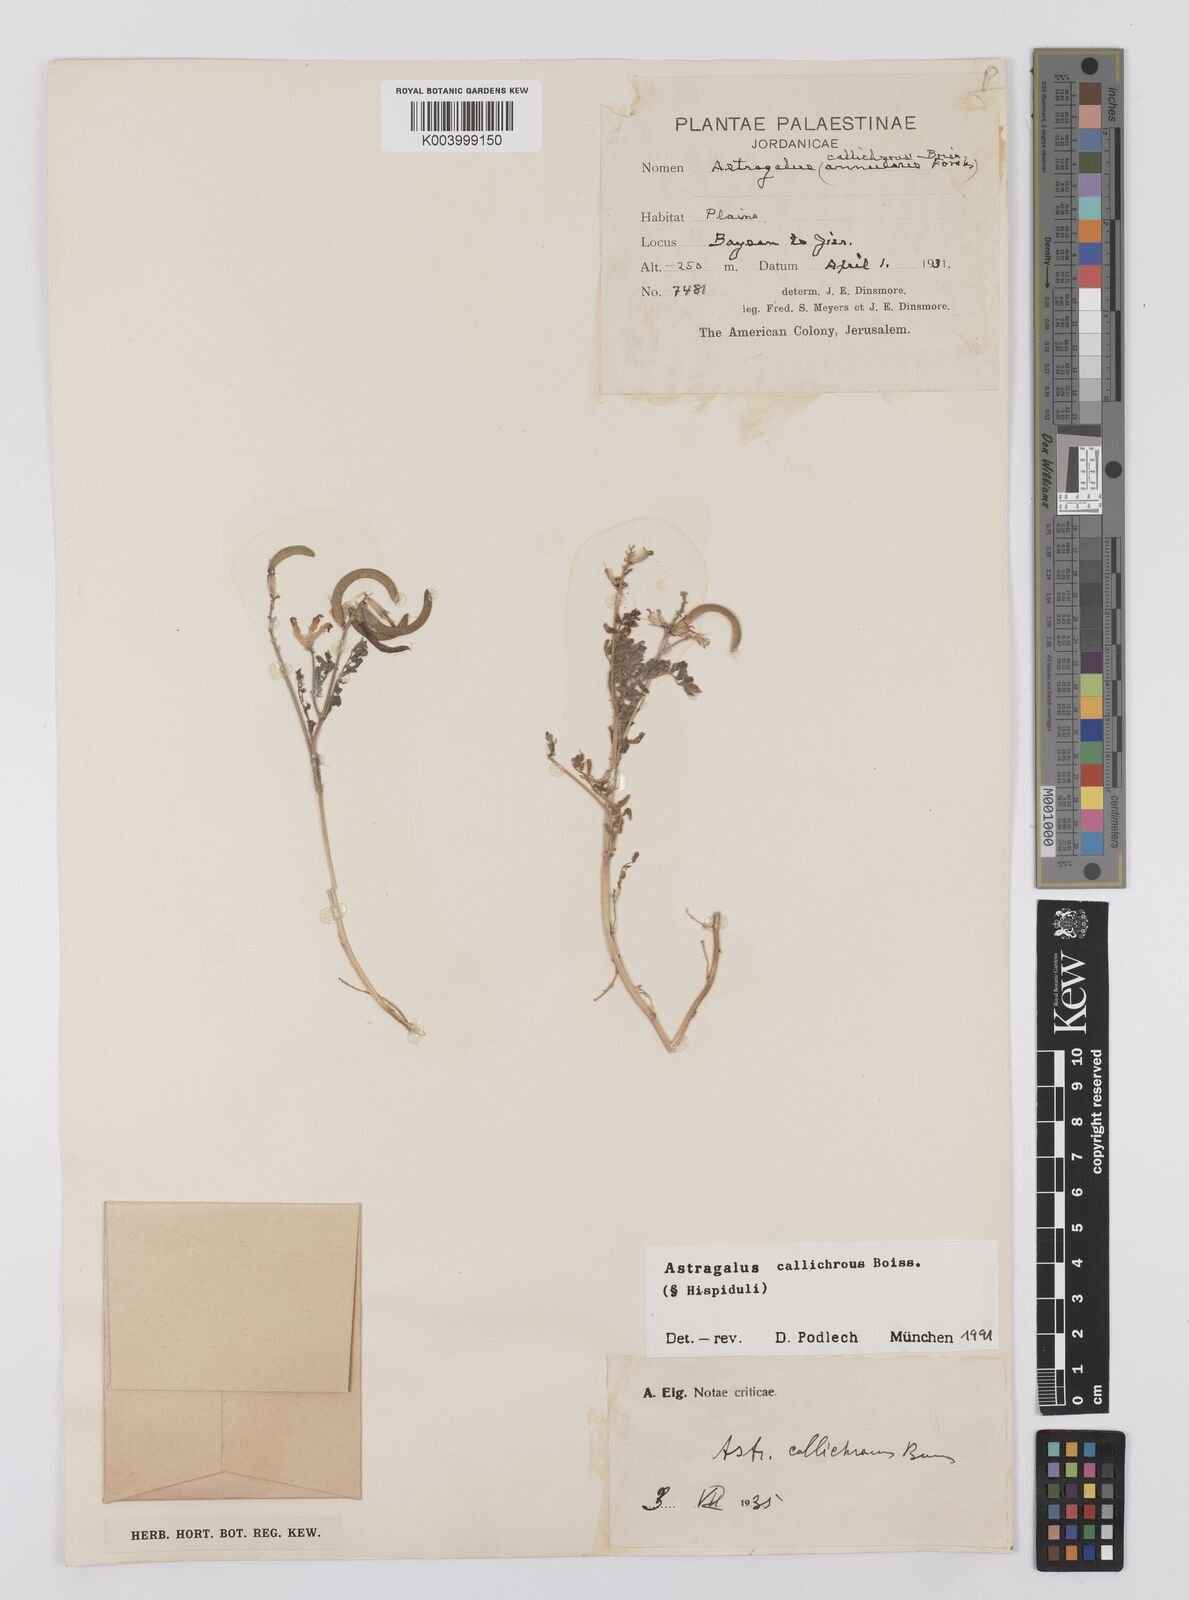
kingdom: Plantae
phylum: Tracheophyta
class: Magnoliopsida
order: Fabales
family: Fabaceae
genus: Astragalus
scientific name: Astragalus callichrous
